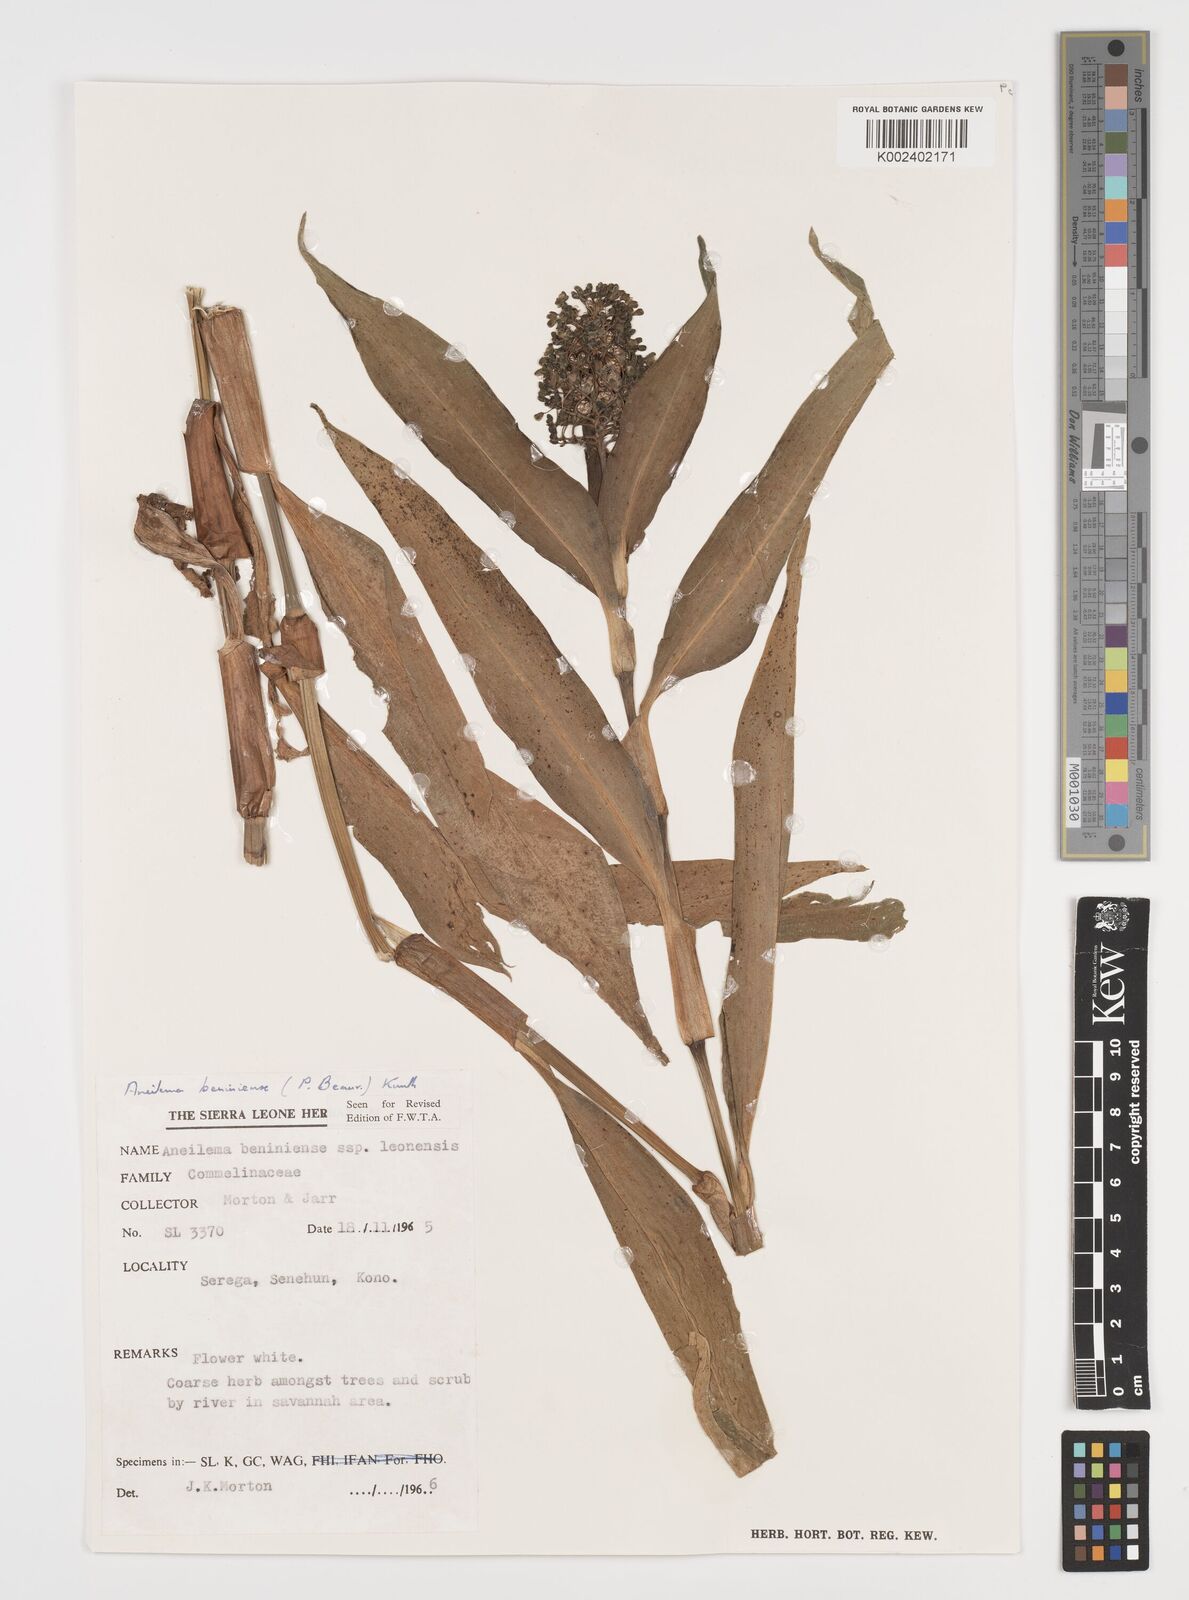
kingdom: Plantae
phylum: Tracheophyta
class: Liliopsida
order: Commelinales
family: Commelinaceae
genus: Aneilema
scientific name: Aneilema beniniense
